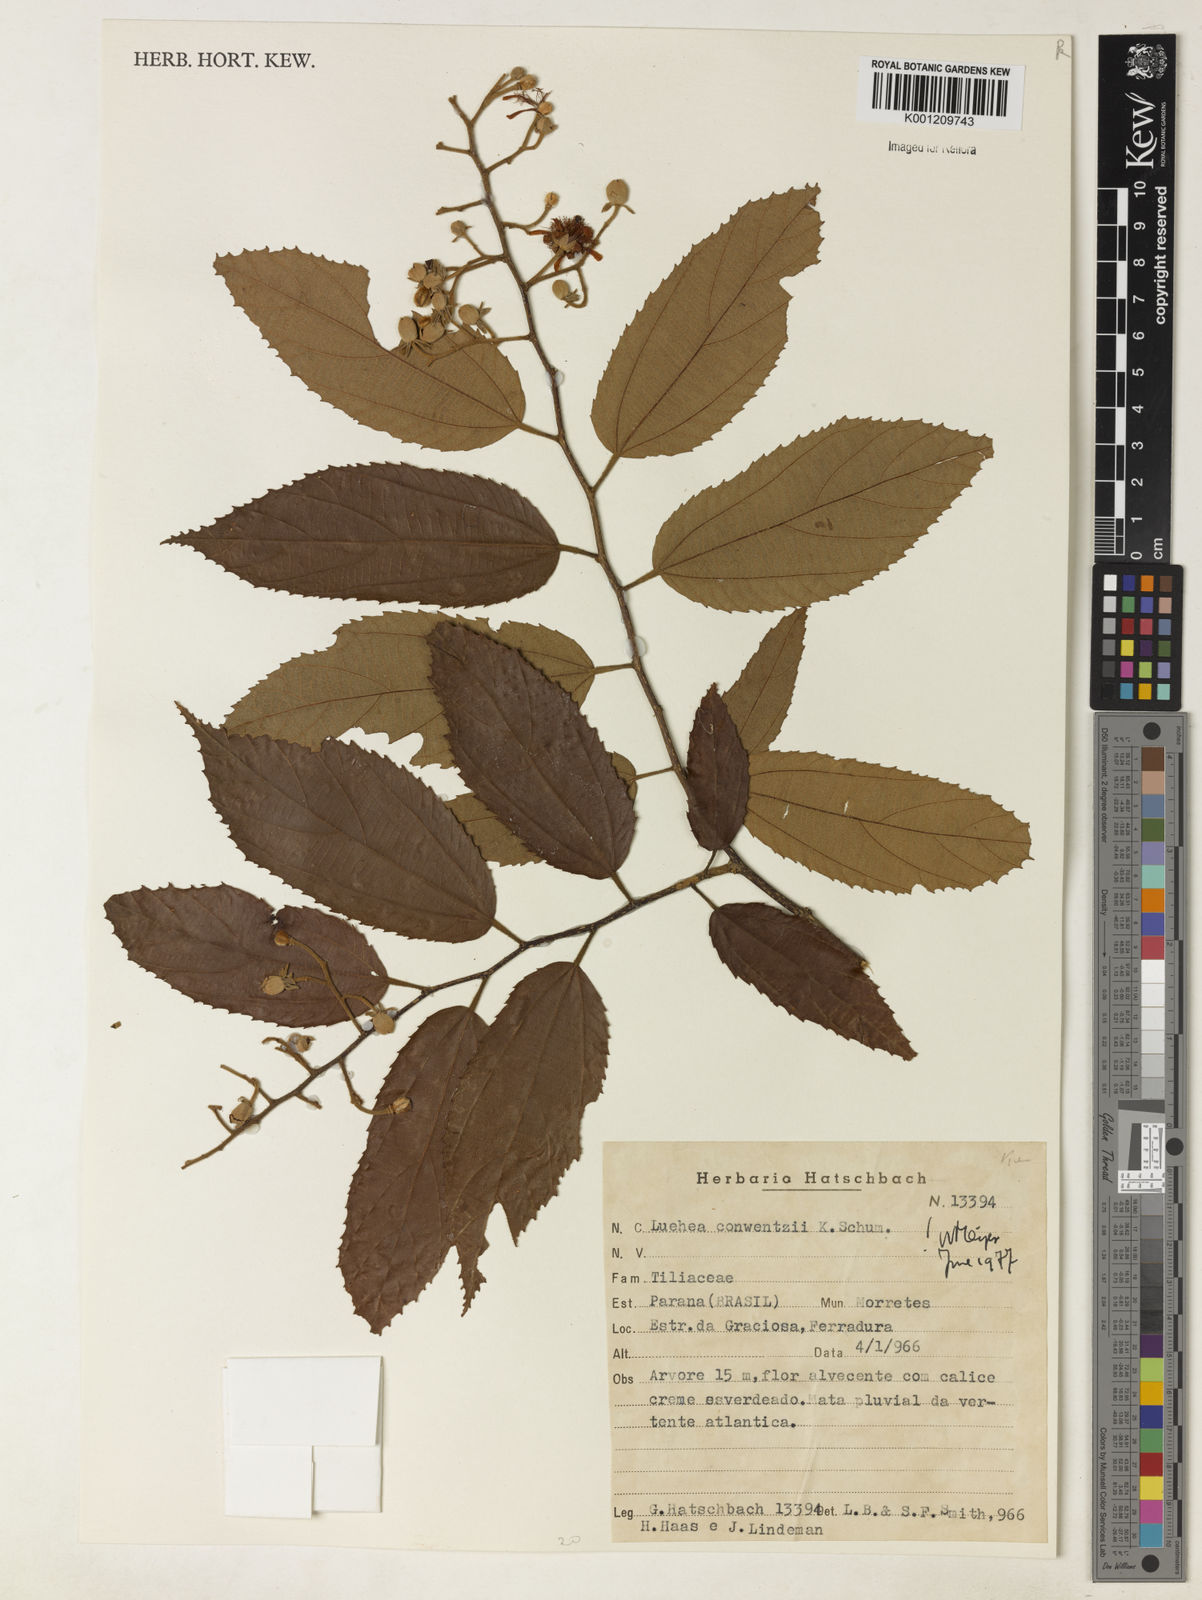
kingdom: Plantae
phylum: Tracheophyta
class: Magnoliopsida
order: Malvales
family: Malvaceae
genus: Luehea
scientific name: Luehea
